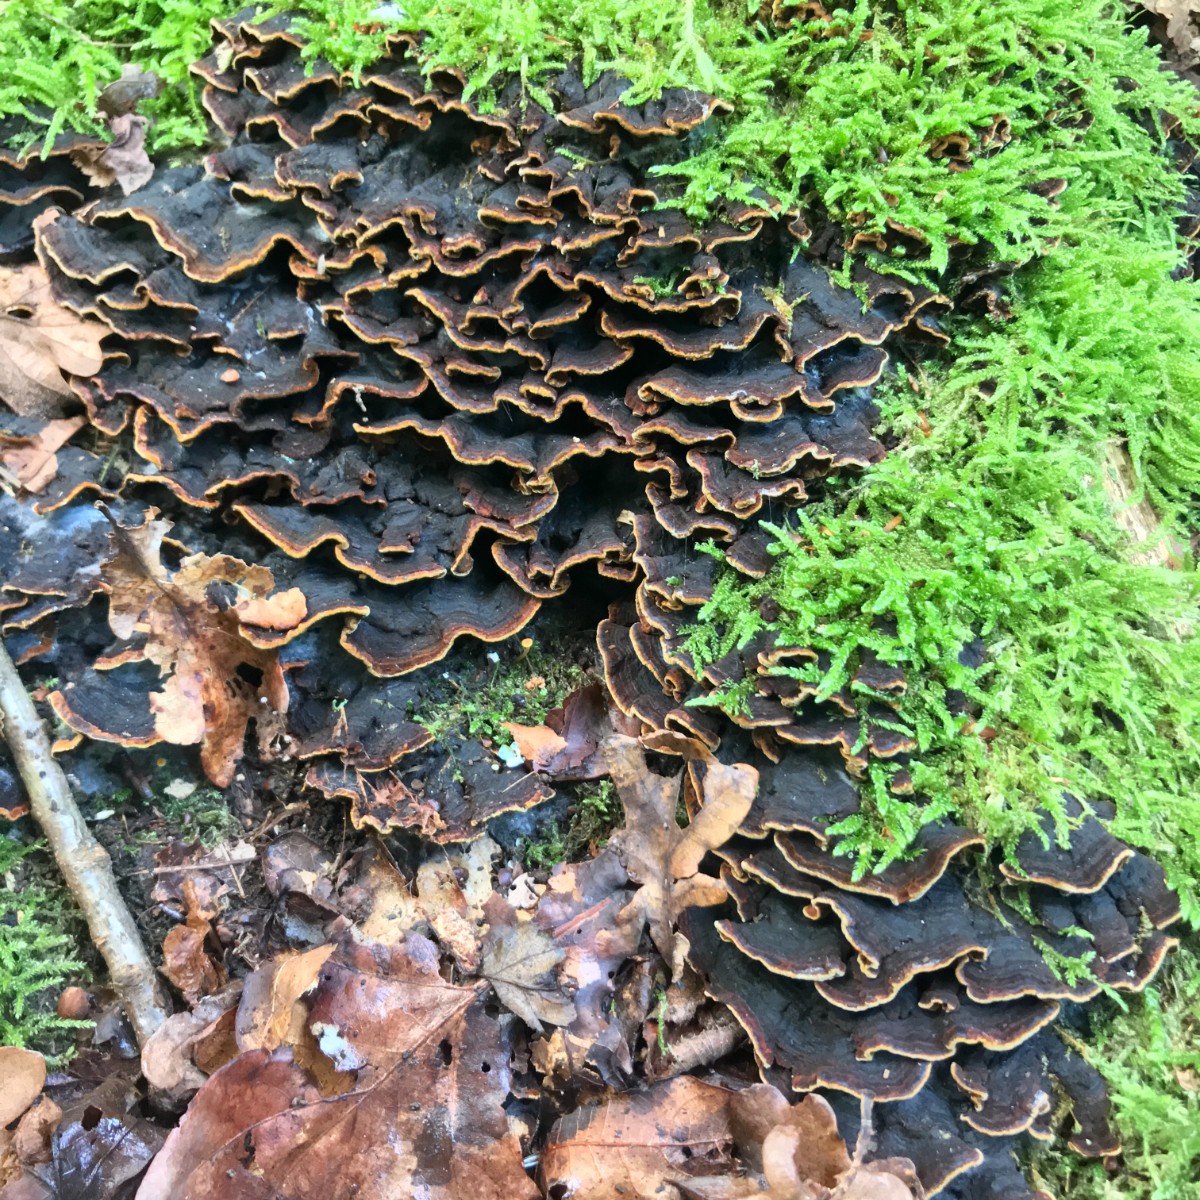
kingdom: Fungi
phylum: Basidiomycota
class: Agaricomycetes
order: Hymenochaetales
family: Hymenochaetaceae
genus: Hymenochaete
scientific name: Hymenochaete rubiginosa
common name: stiv ruslædersvamp
